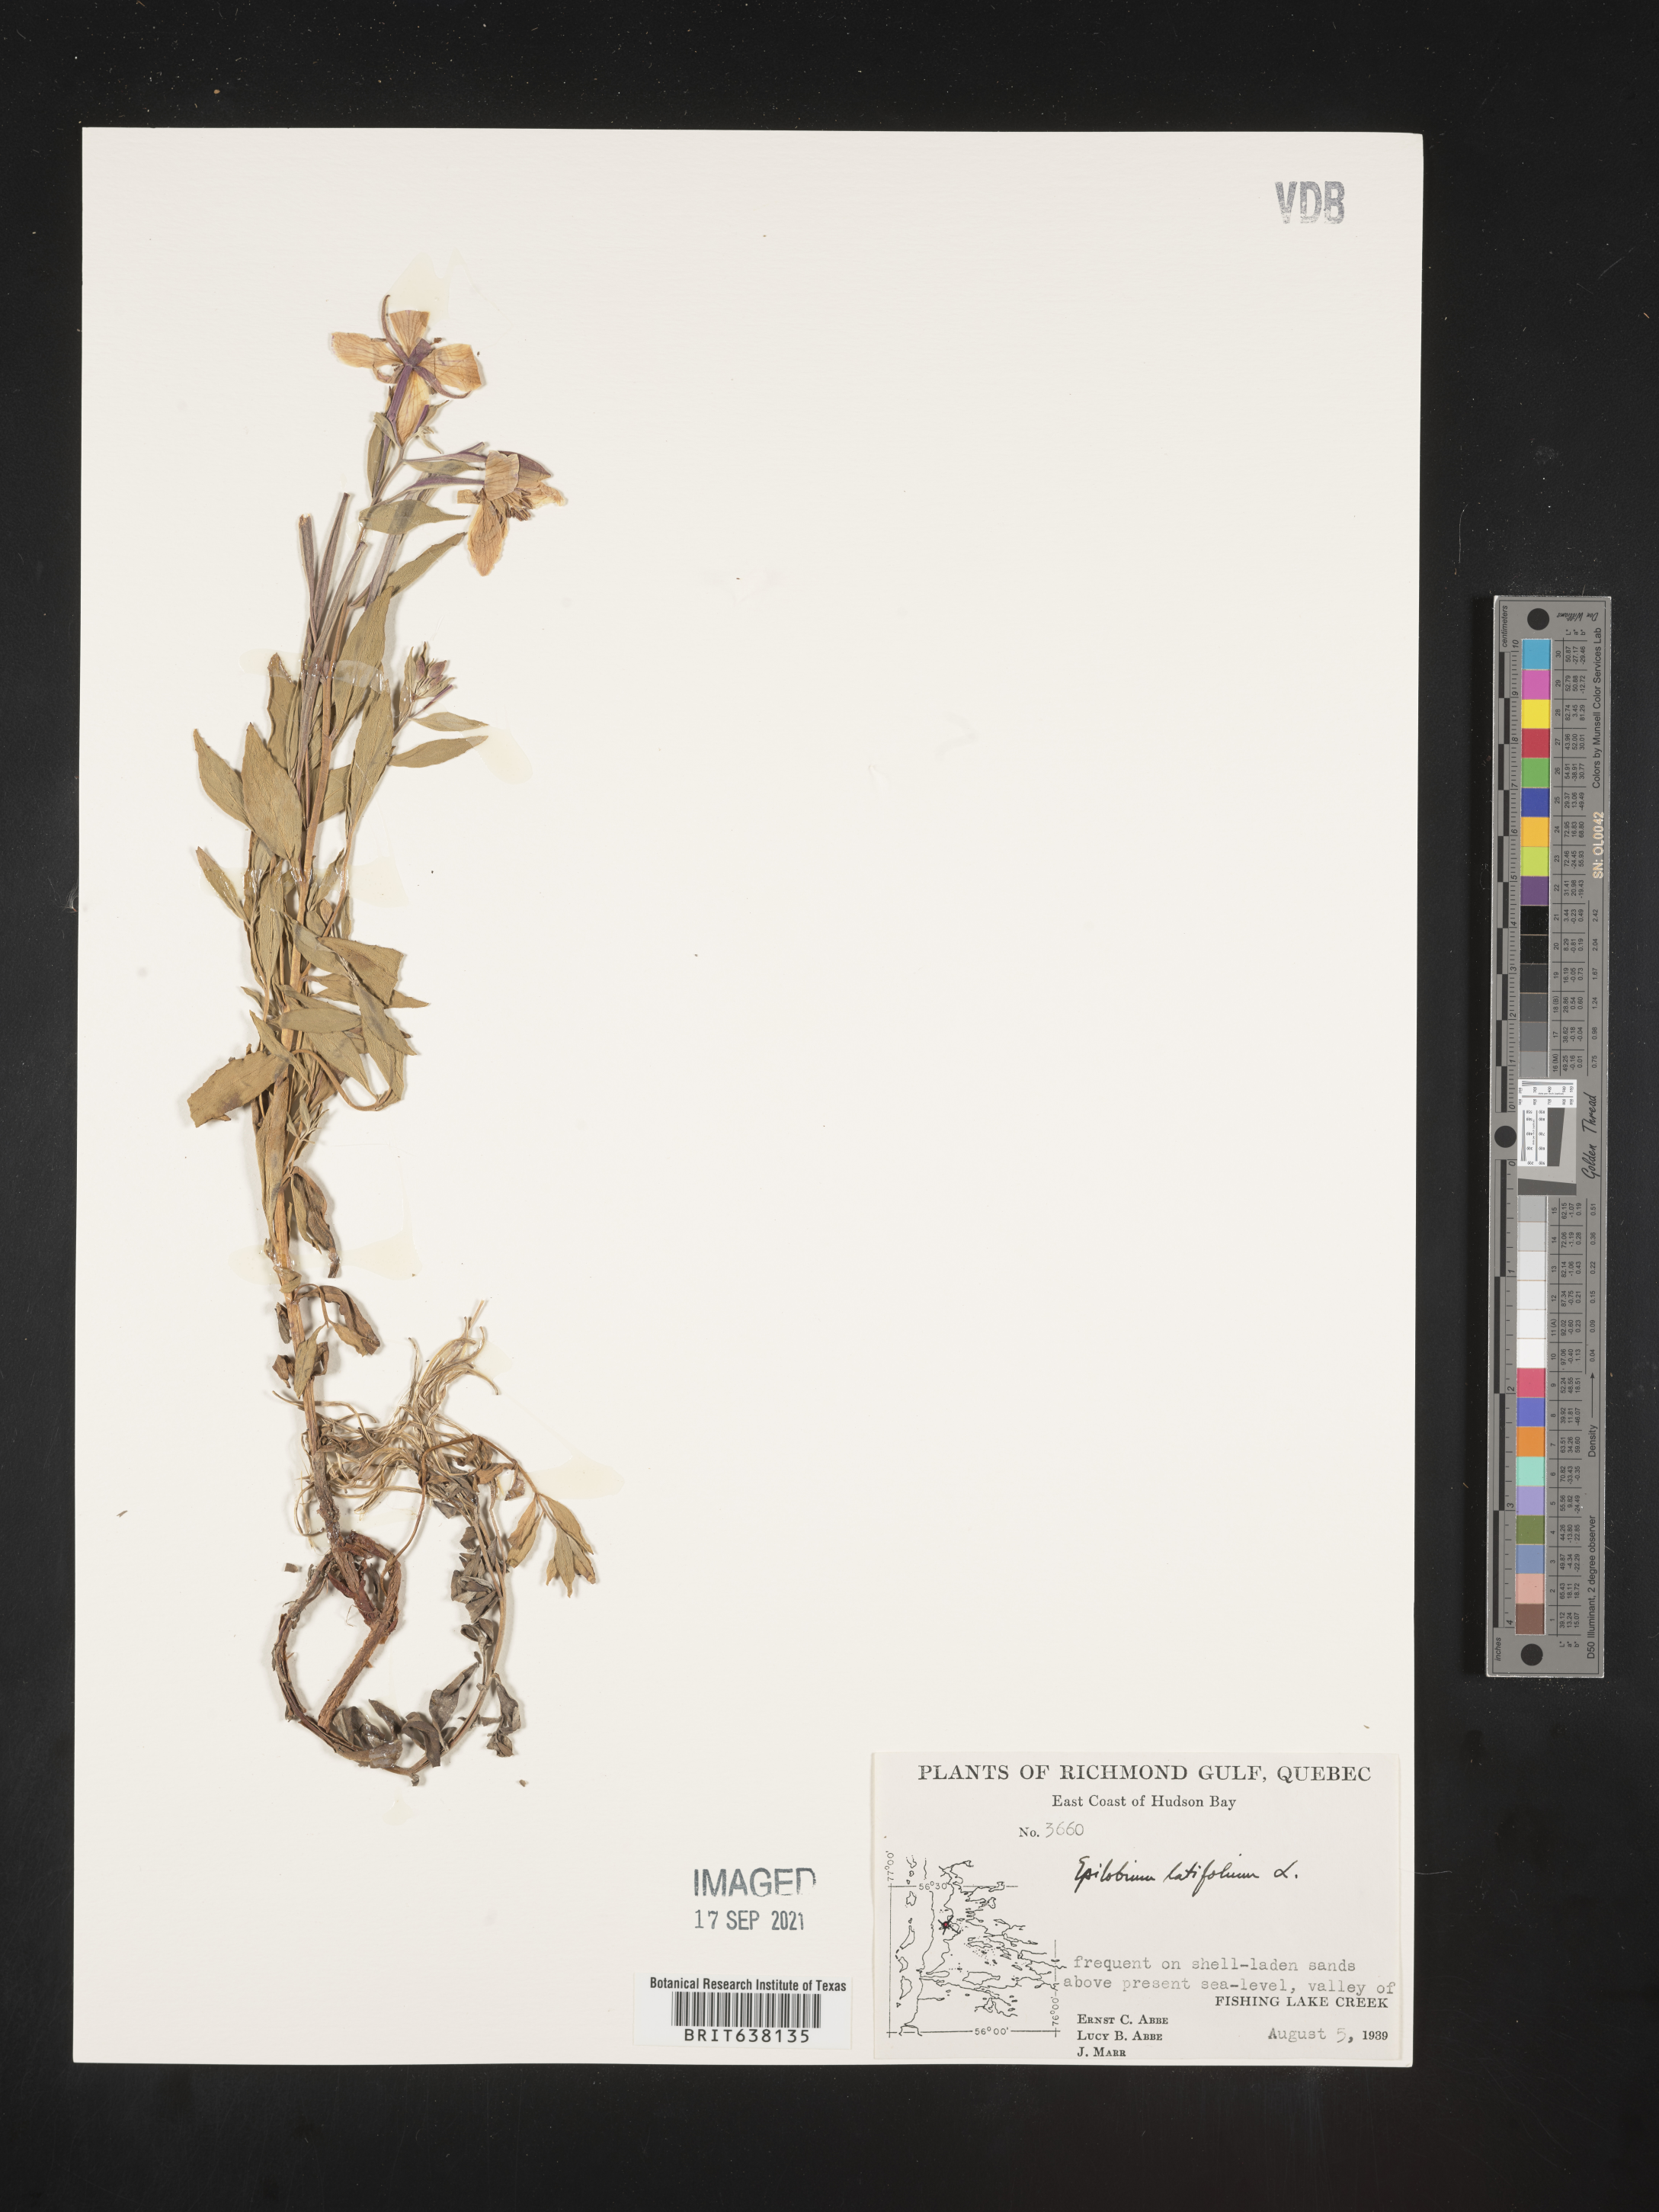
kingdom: Plantae
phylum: Tracheophyta
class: Magnoliopsida
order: Myrtales
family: Onagraceae
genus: Epilobium
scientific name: Epilobium
